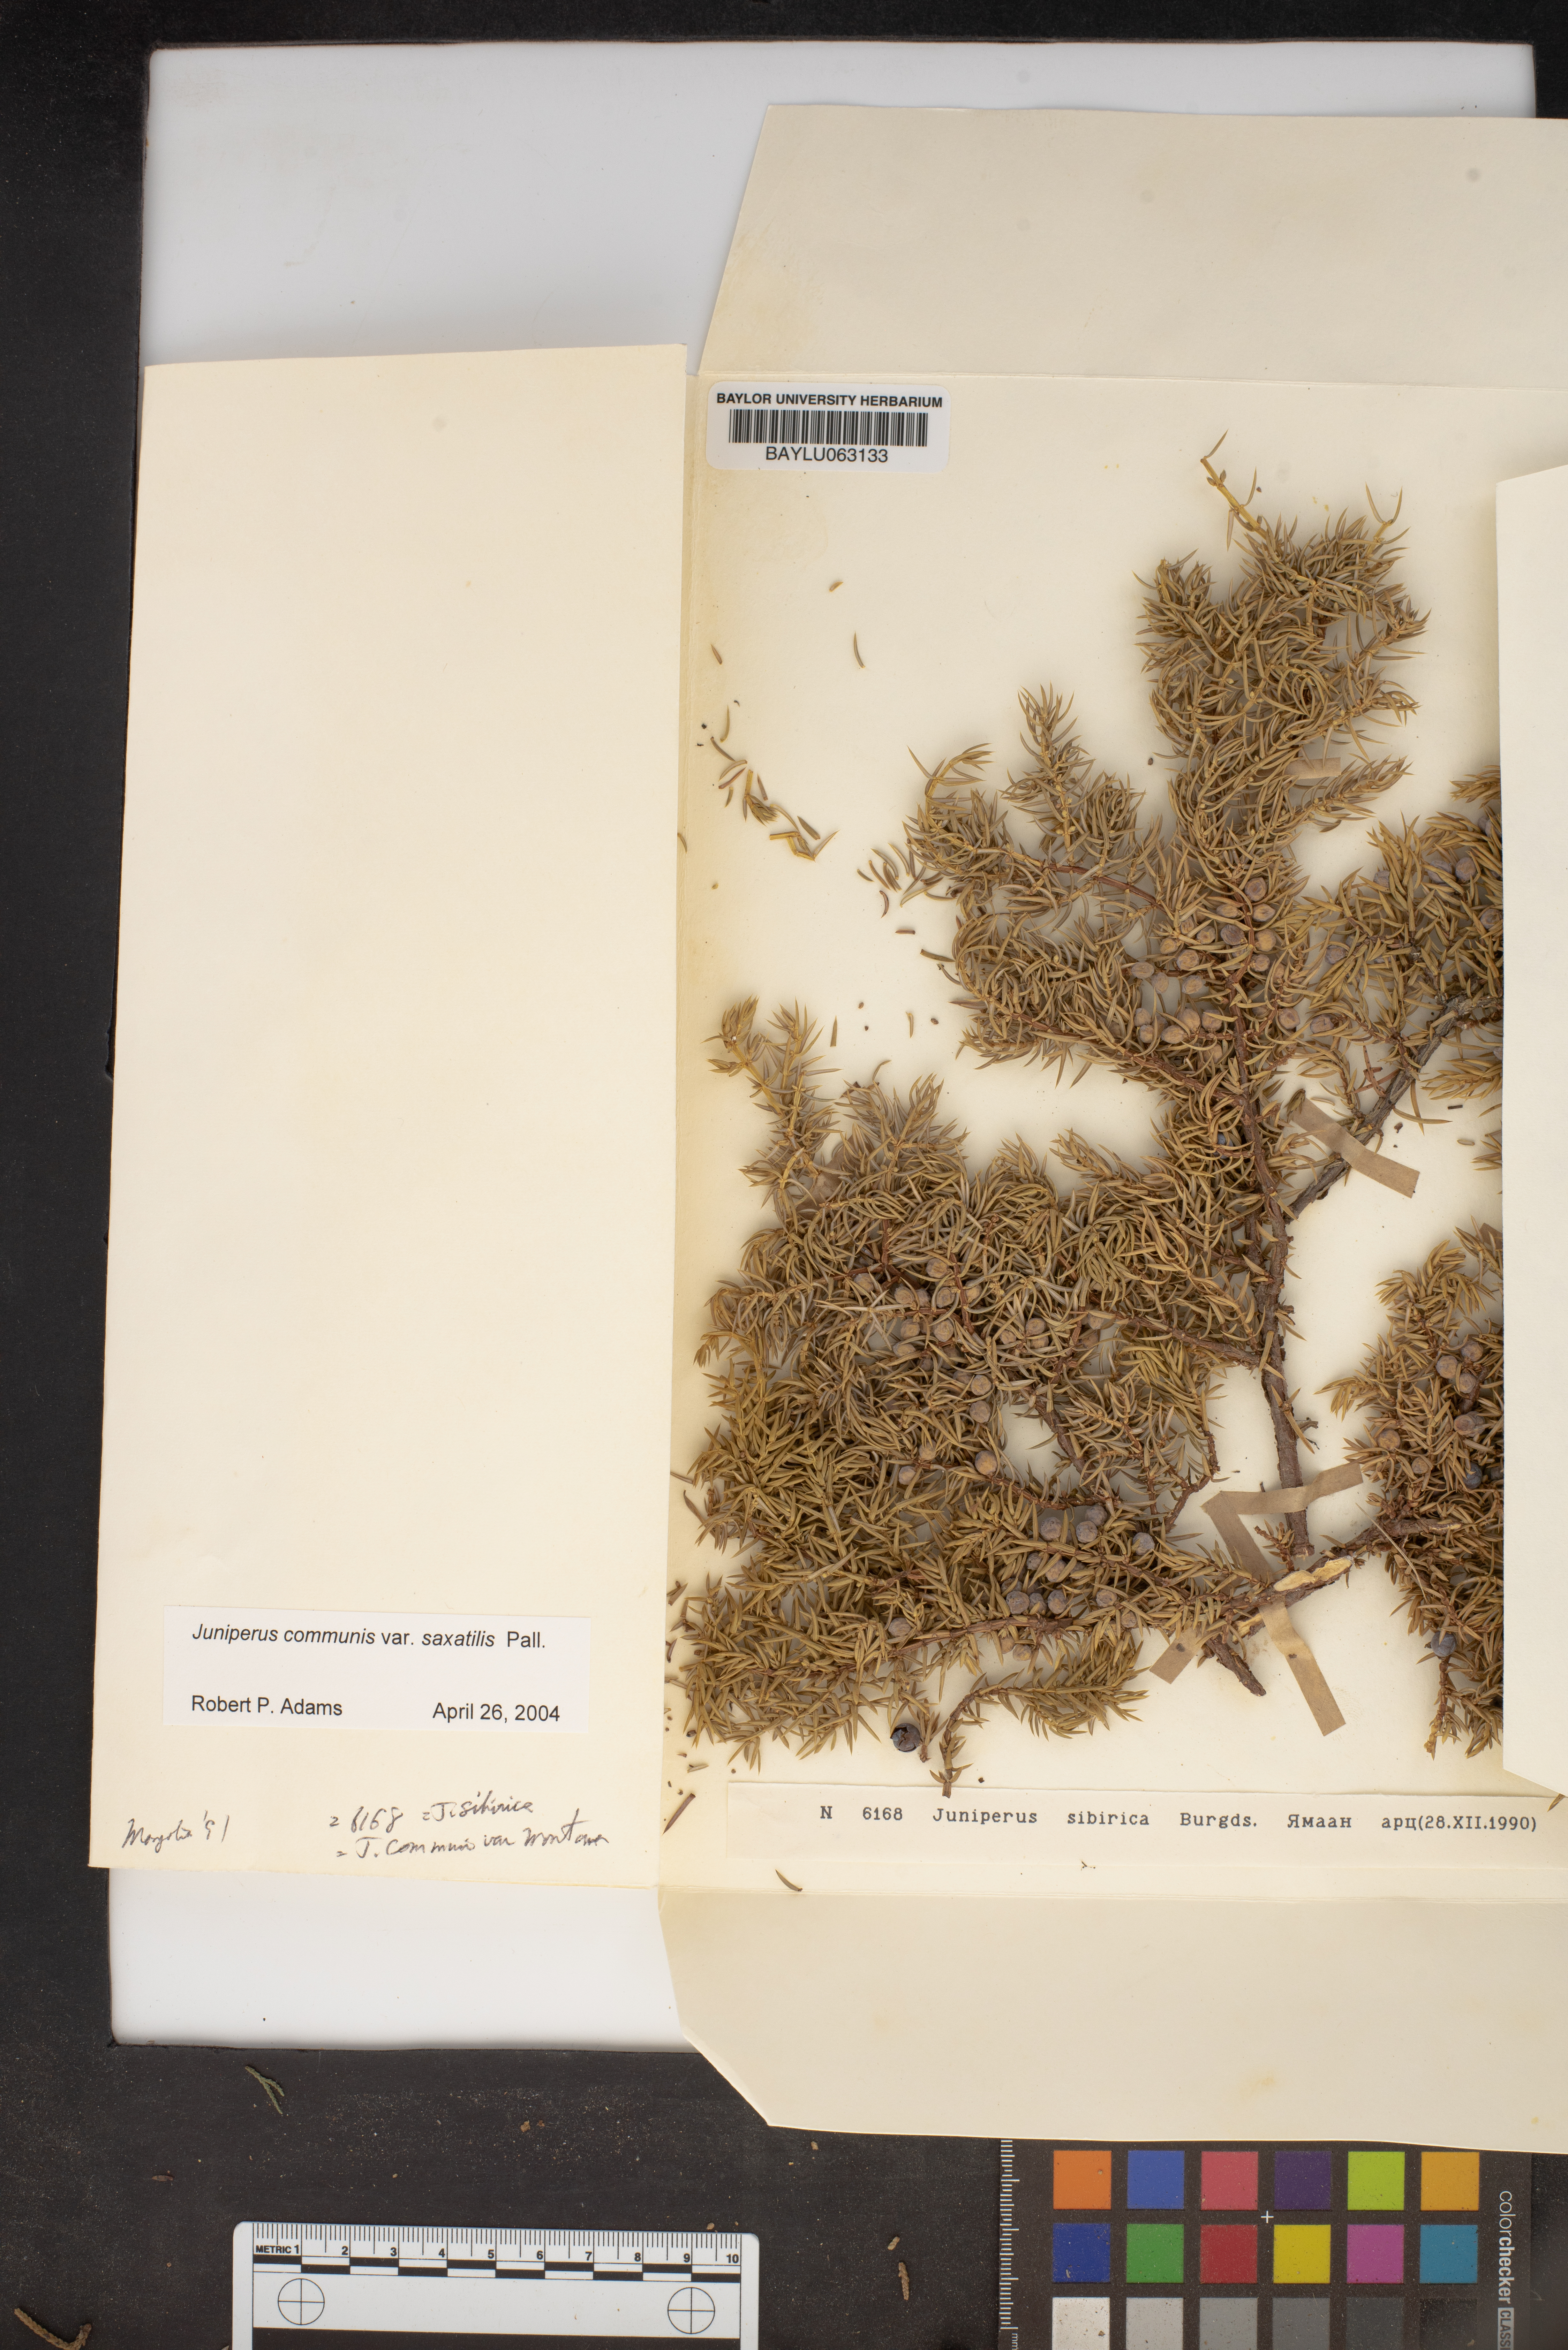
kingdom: Plantae
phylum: Tracheophyta
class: Pinopsida
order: Pinales
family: Cupressaceae
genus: Juniperus
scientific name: Juniperus communis
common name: Common juniper
